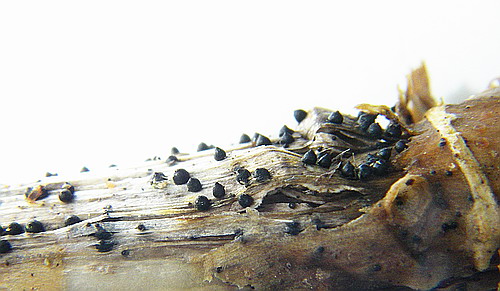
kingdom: Fungi
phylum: Ascomycota
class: Dothideomycetes
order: Pleosporales
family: Leptosphaeriaceae
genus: Leptosphaeria
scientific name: Leptosphaeria acuta
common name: spids kulkegle
